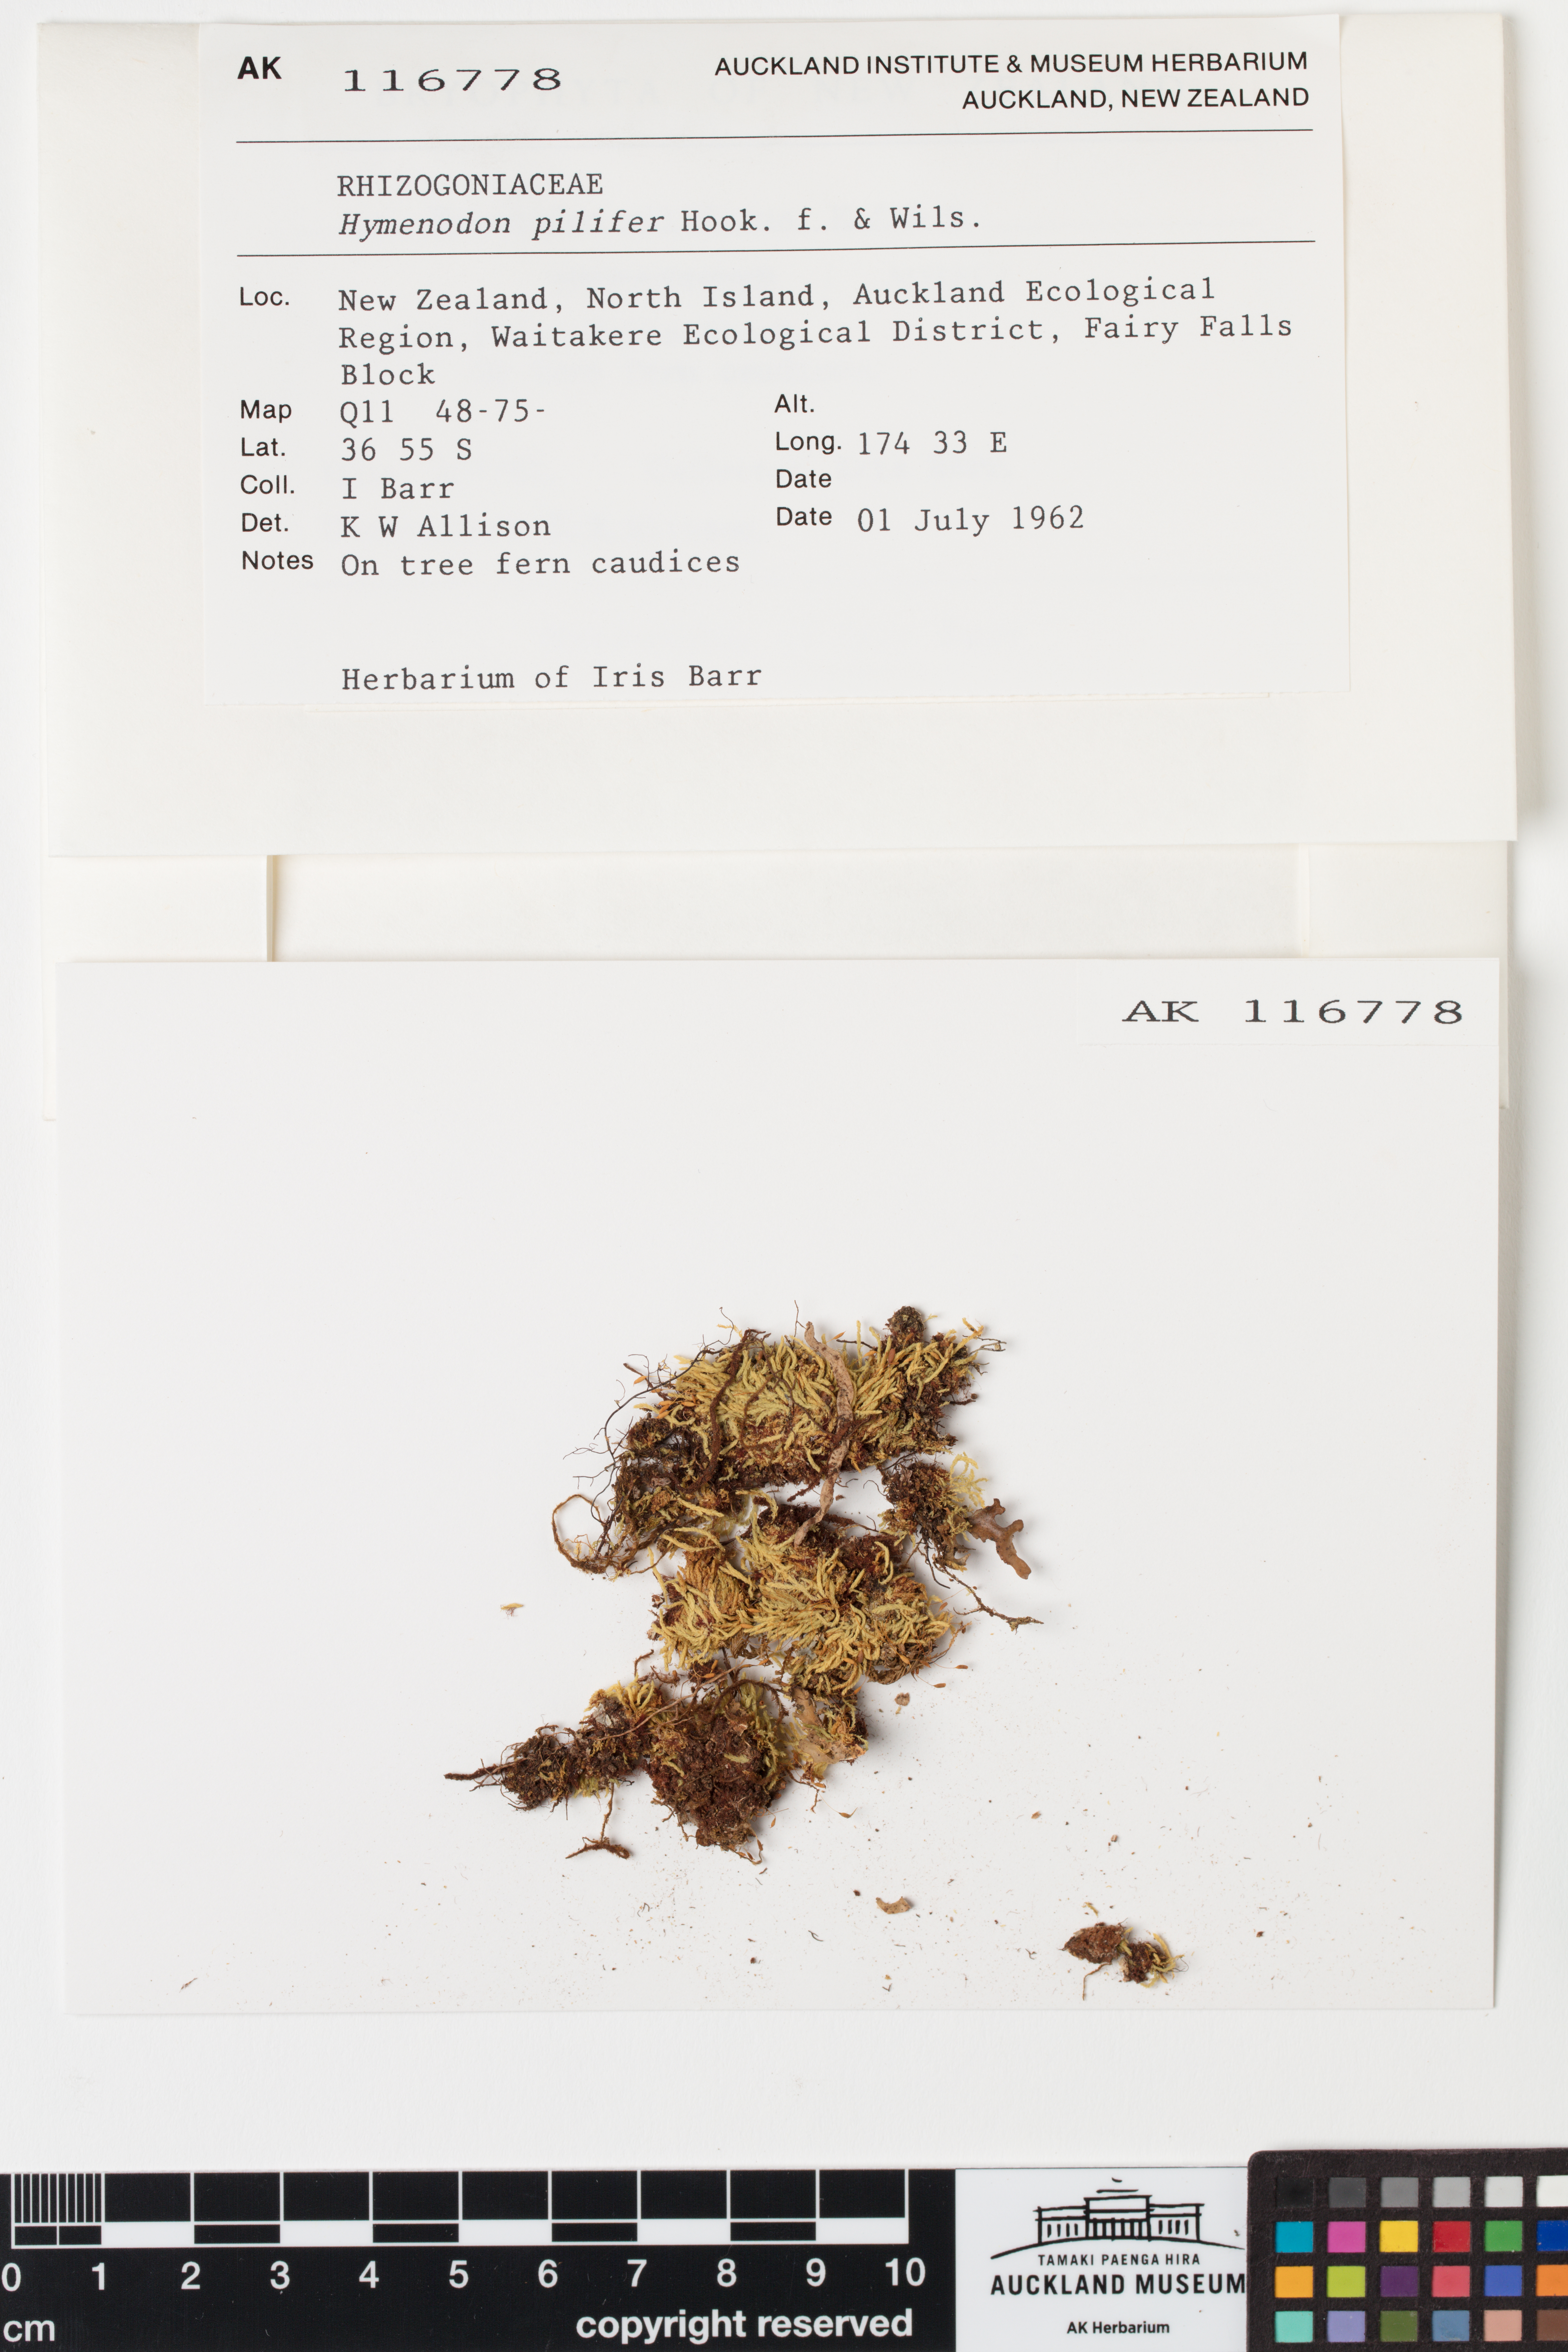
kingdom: Plantae
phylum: Bryophyta
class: Bryopsida
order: Orthodontiales
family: Orthodontiaceae
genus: Hymenodon
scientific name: Hymenodon pilifer
